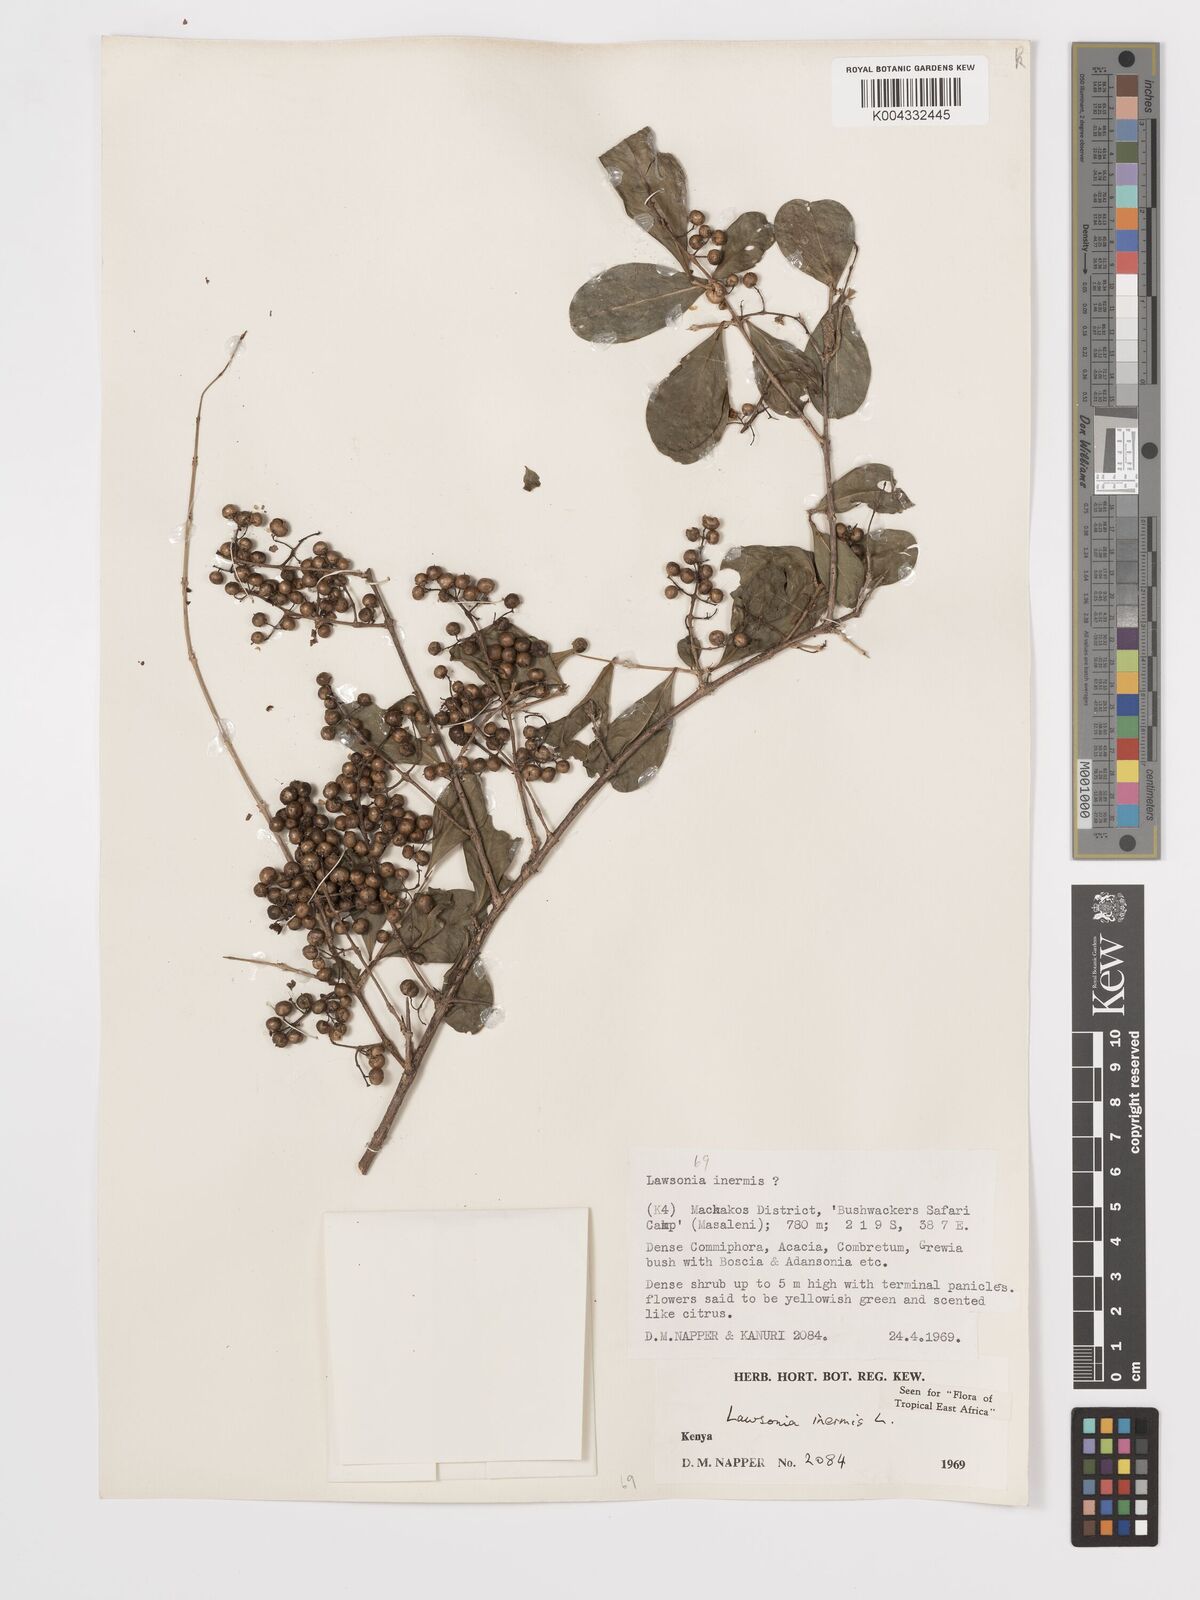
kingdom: Plantae
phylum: Tracheophyta
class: Magnoliopsida
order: Myrtales
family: Lythraceae
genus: Lawsonia
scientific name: Lawsonia inermis
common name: Henna
